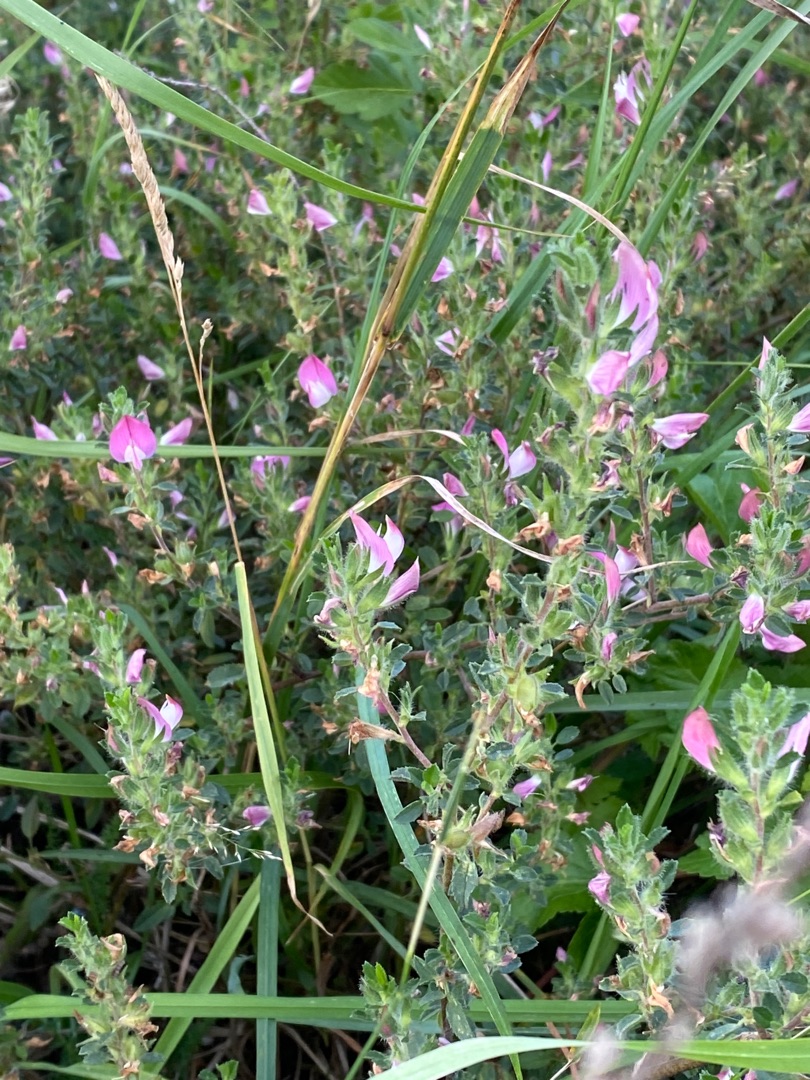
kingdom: Plantae
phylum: Tracheophyta
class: Magnoliopsida
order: Fabales
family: Fabaceae
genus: Ononis
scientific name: Ononis spinosa
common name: Mark-krageklo
